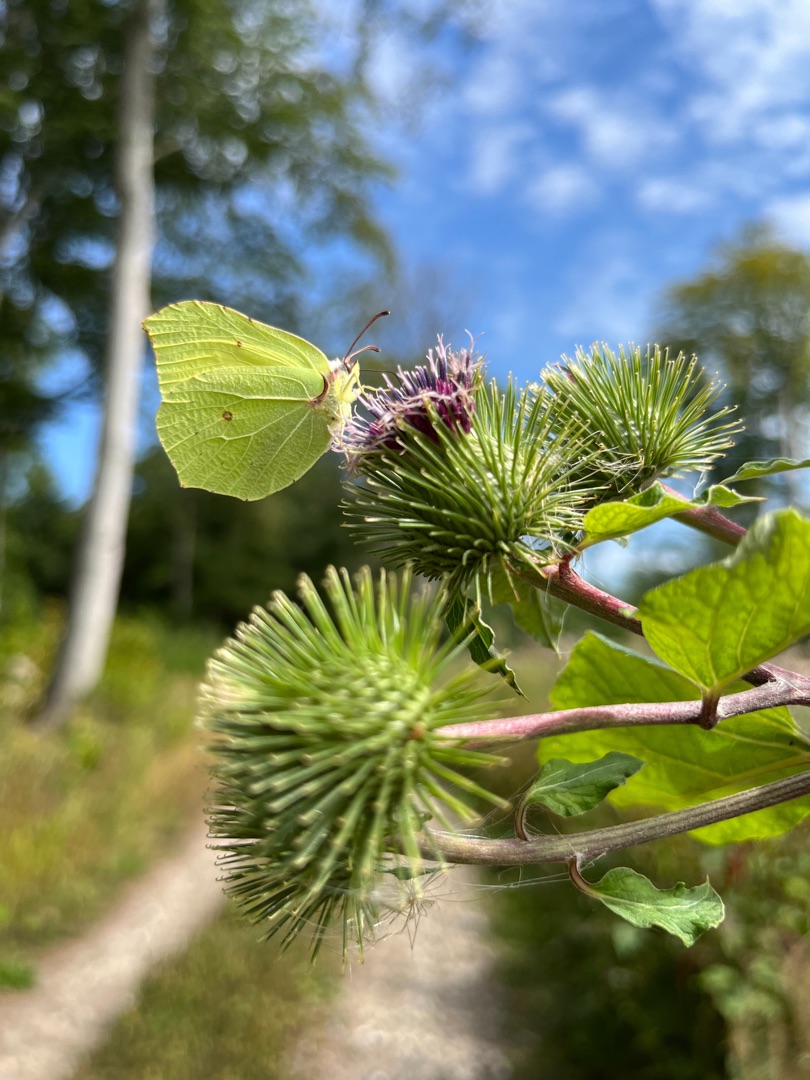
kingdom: Animalia
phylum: Arthropoda
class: Insecta
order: Lepidoptera
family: Pieridae
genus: Gonepteryx
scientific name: Gonepteryx rhamni
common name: Citronsommerfugl
